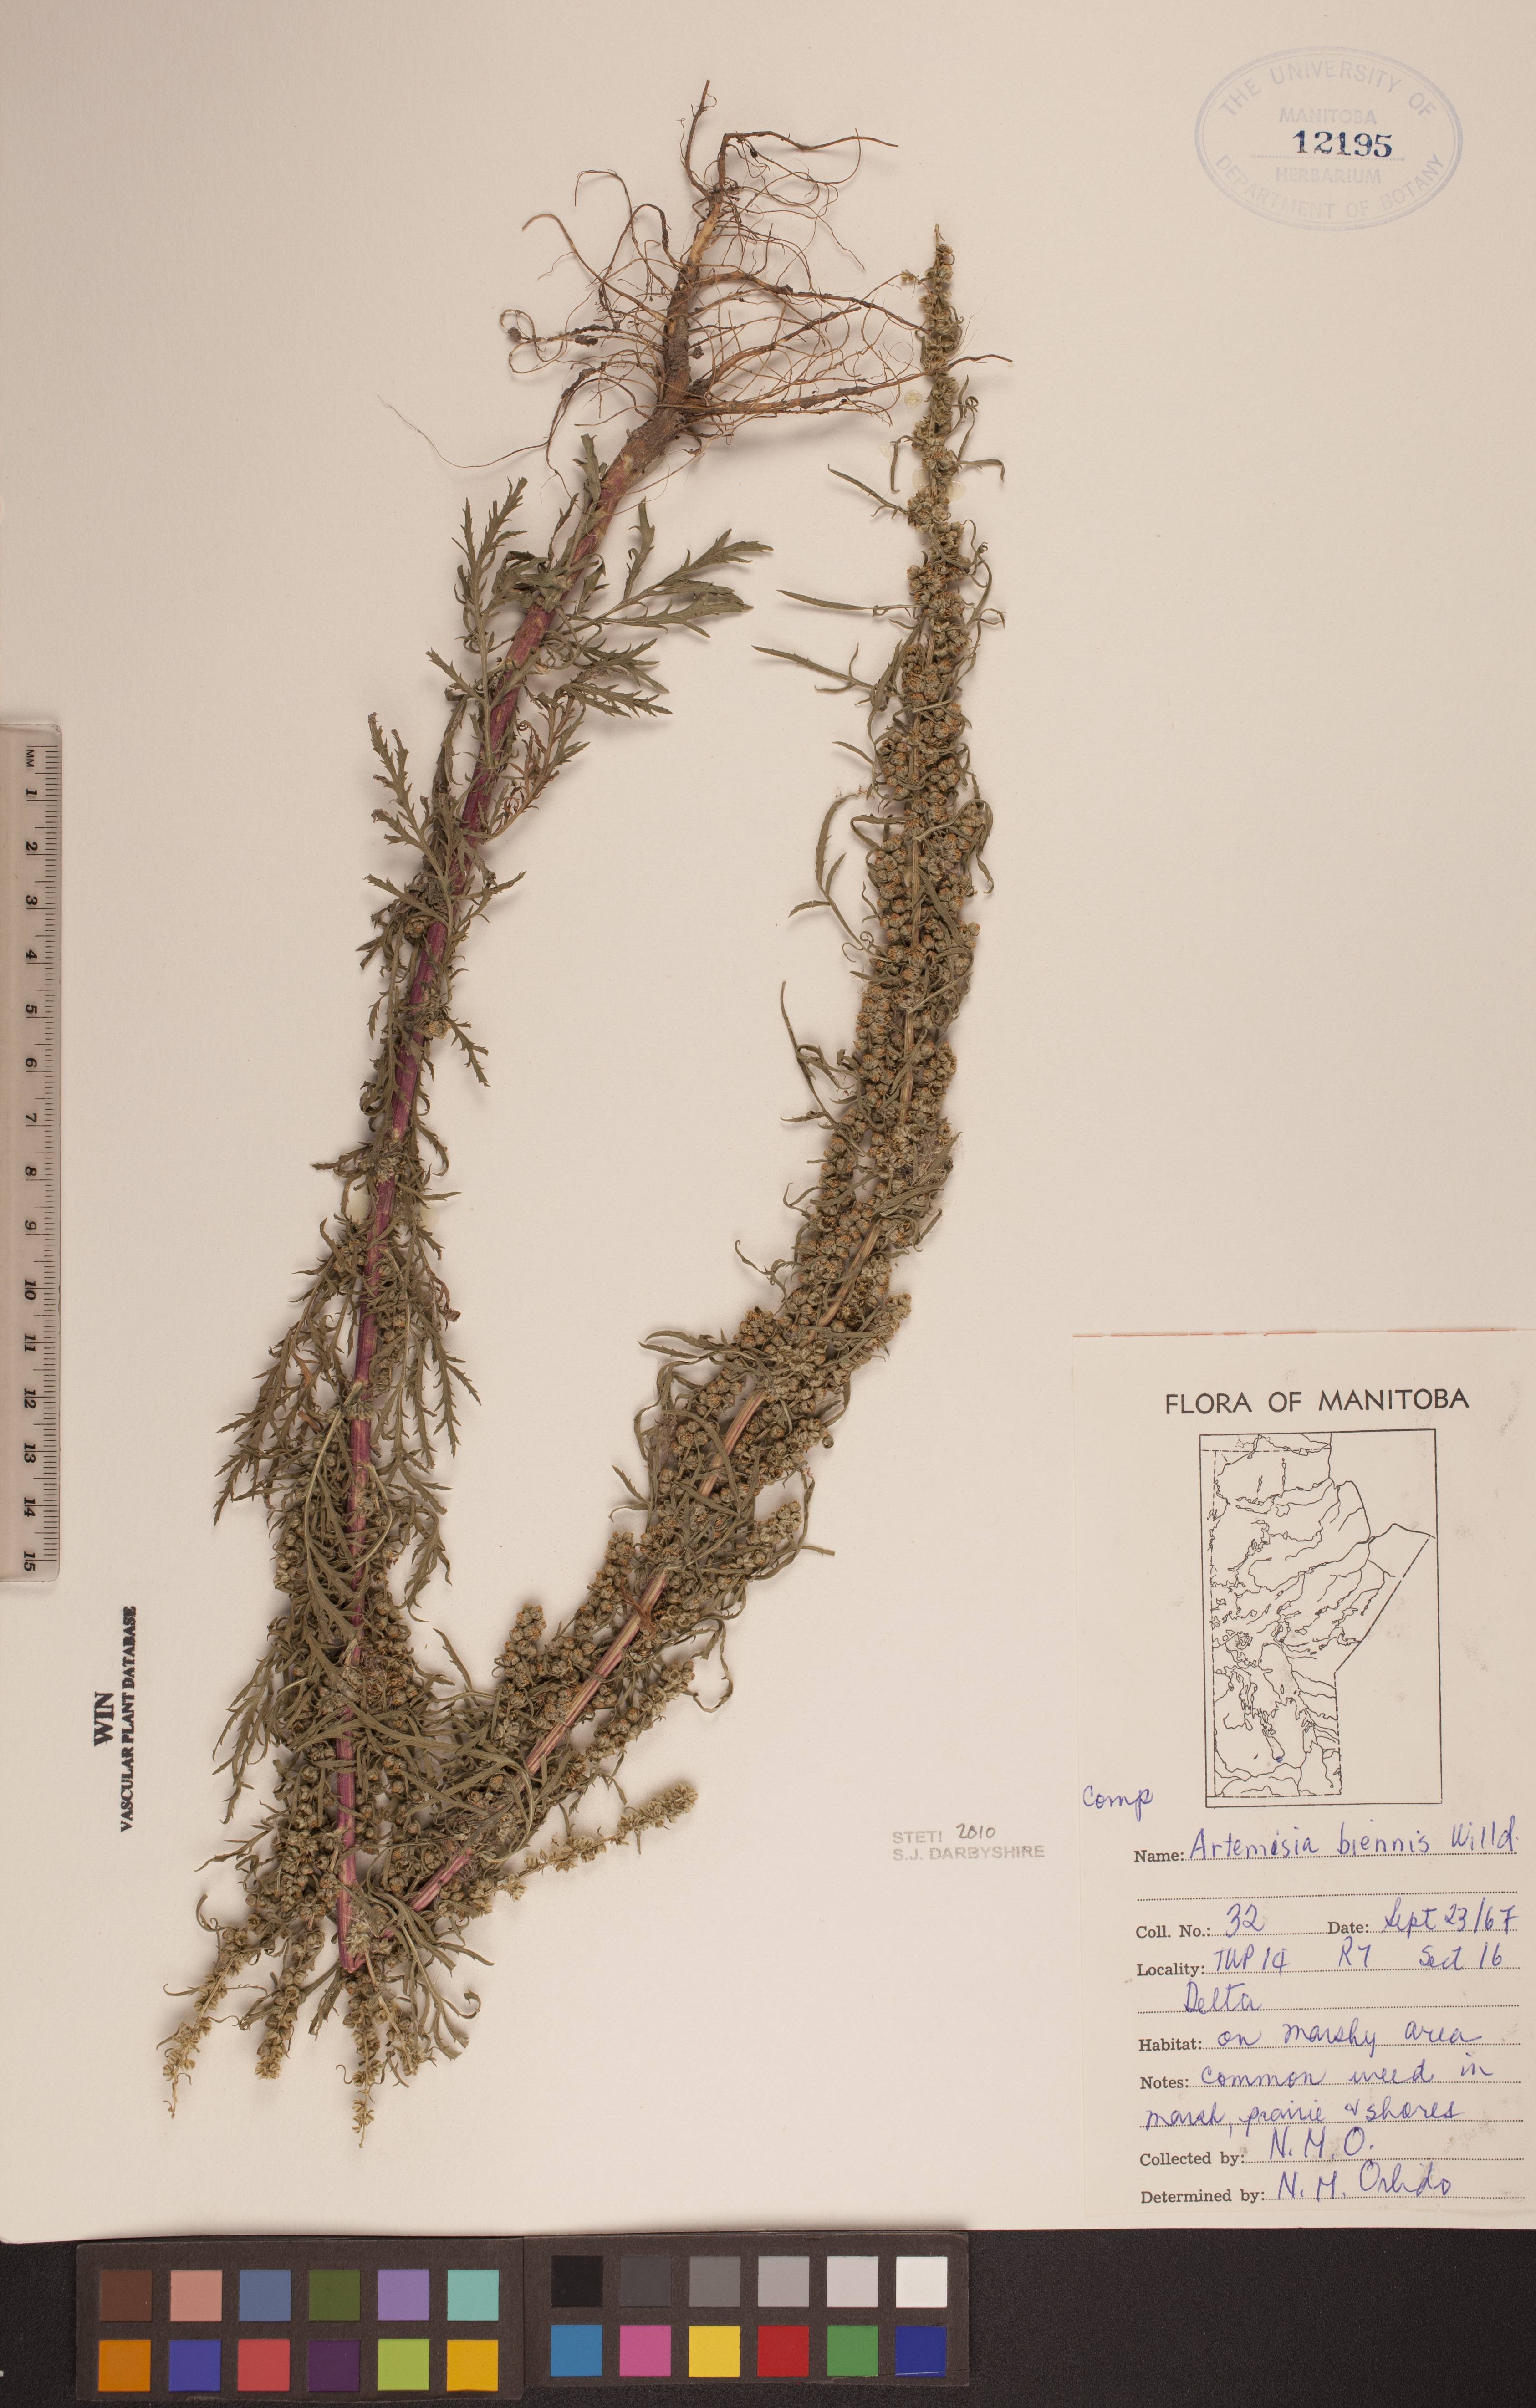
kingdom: Plantae
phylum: Tracheophyta
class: Magnoliopsida
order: Asterales
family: Asteraceae
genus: Artemisia
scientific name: Artemisia biennis
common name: Biennial wormwood
